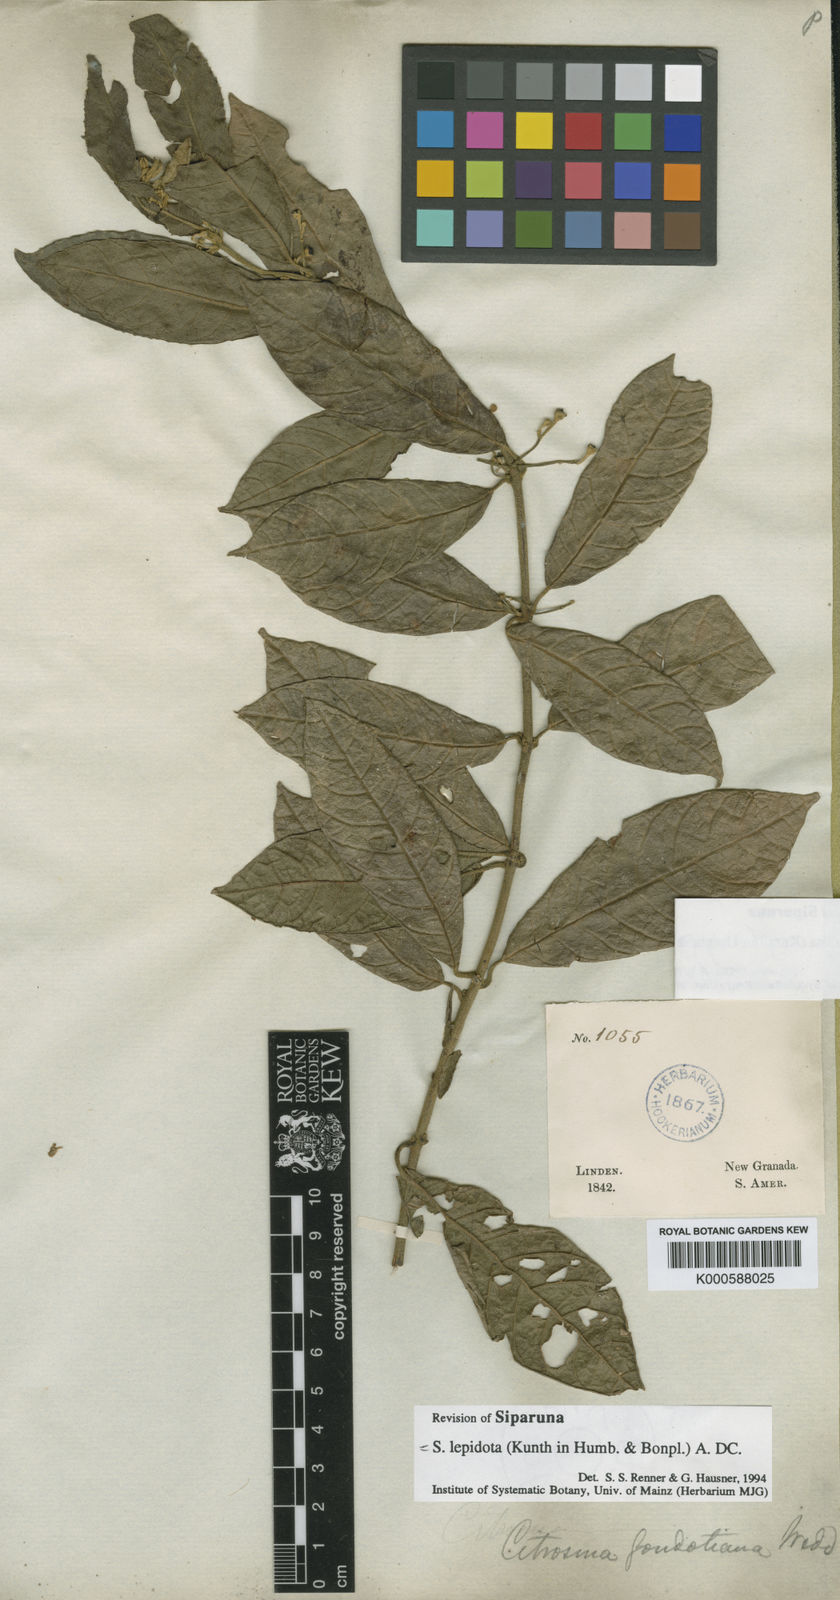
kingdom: Plantae
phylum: Tracheophyta
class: Magnoliopsida
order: Laurales
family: Siparunaceae
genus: Siparuna
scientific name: Siparuna lepidota
